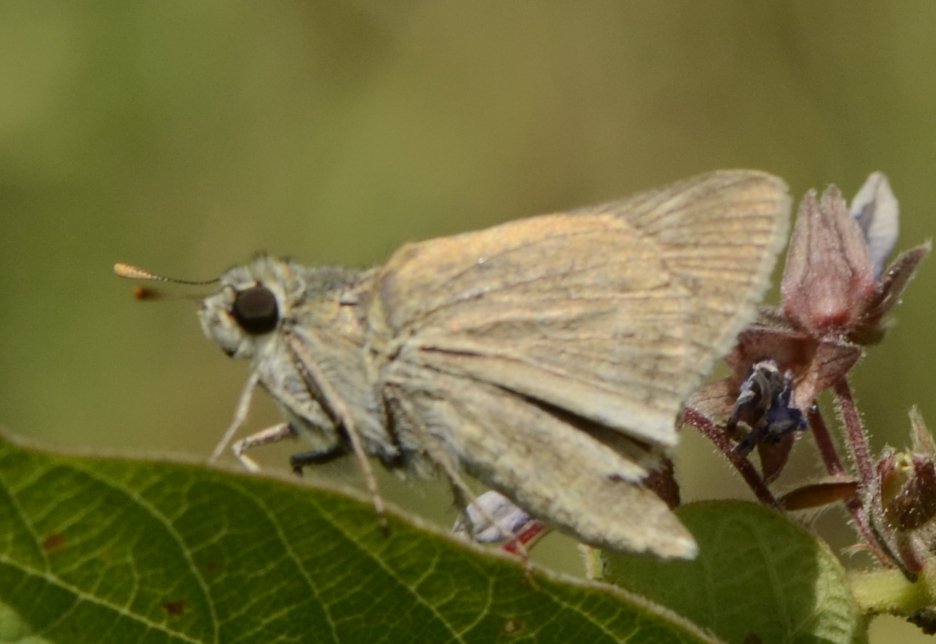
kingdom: Animalia
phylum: Arthropoda
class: Insecta
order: Lepidoptera
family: Hesperiidae
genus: Polites
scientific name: Polites
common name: Crossline Skipper
